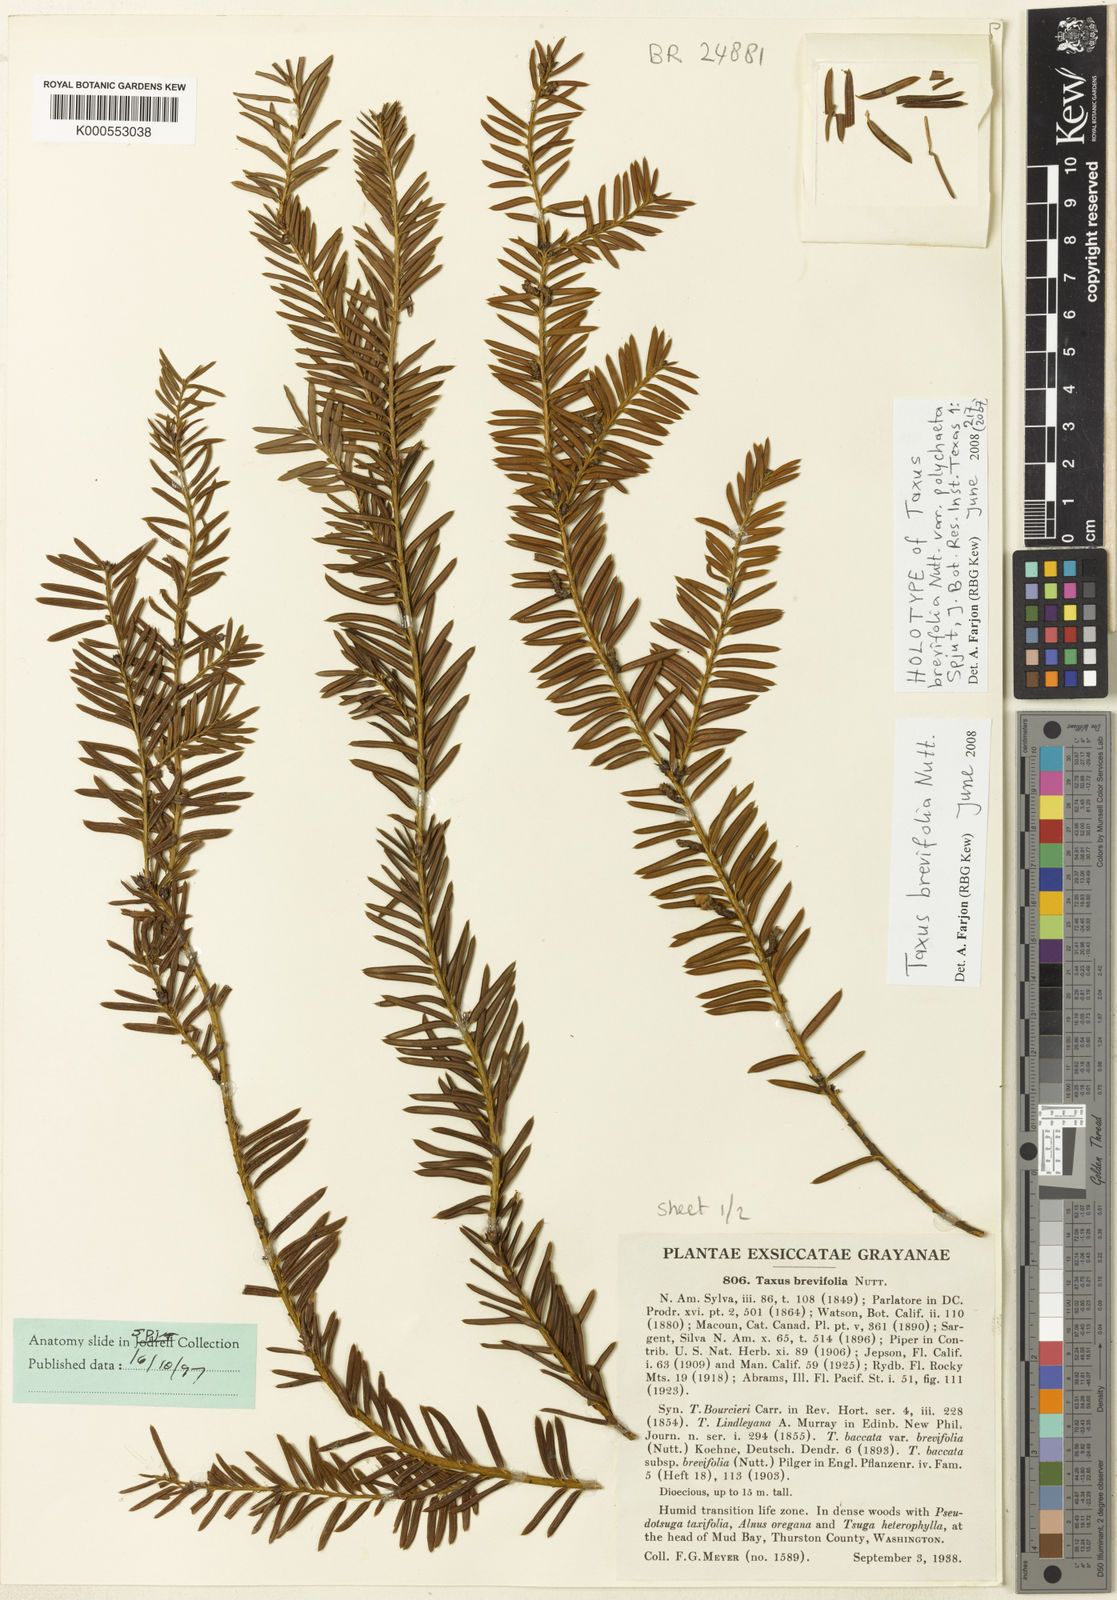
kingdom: Plantae
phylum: Tracheophyta
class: Pinopsida
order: Pinales
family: Taxaceae
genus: Taxus
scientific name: Taxus brevifolia
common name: Pacific yew
